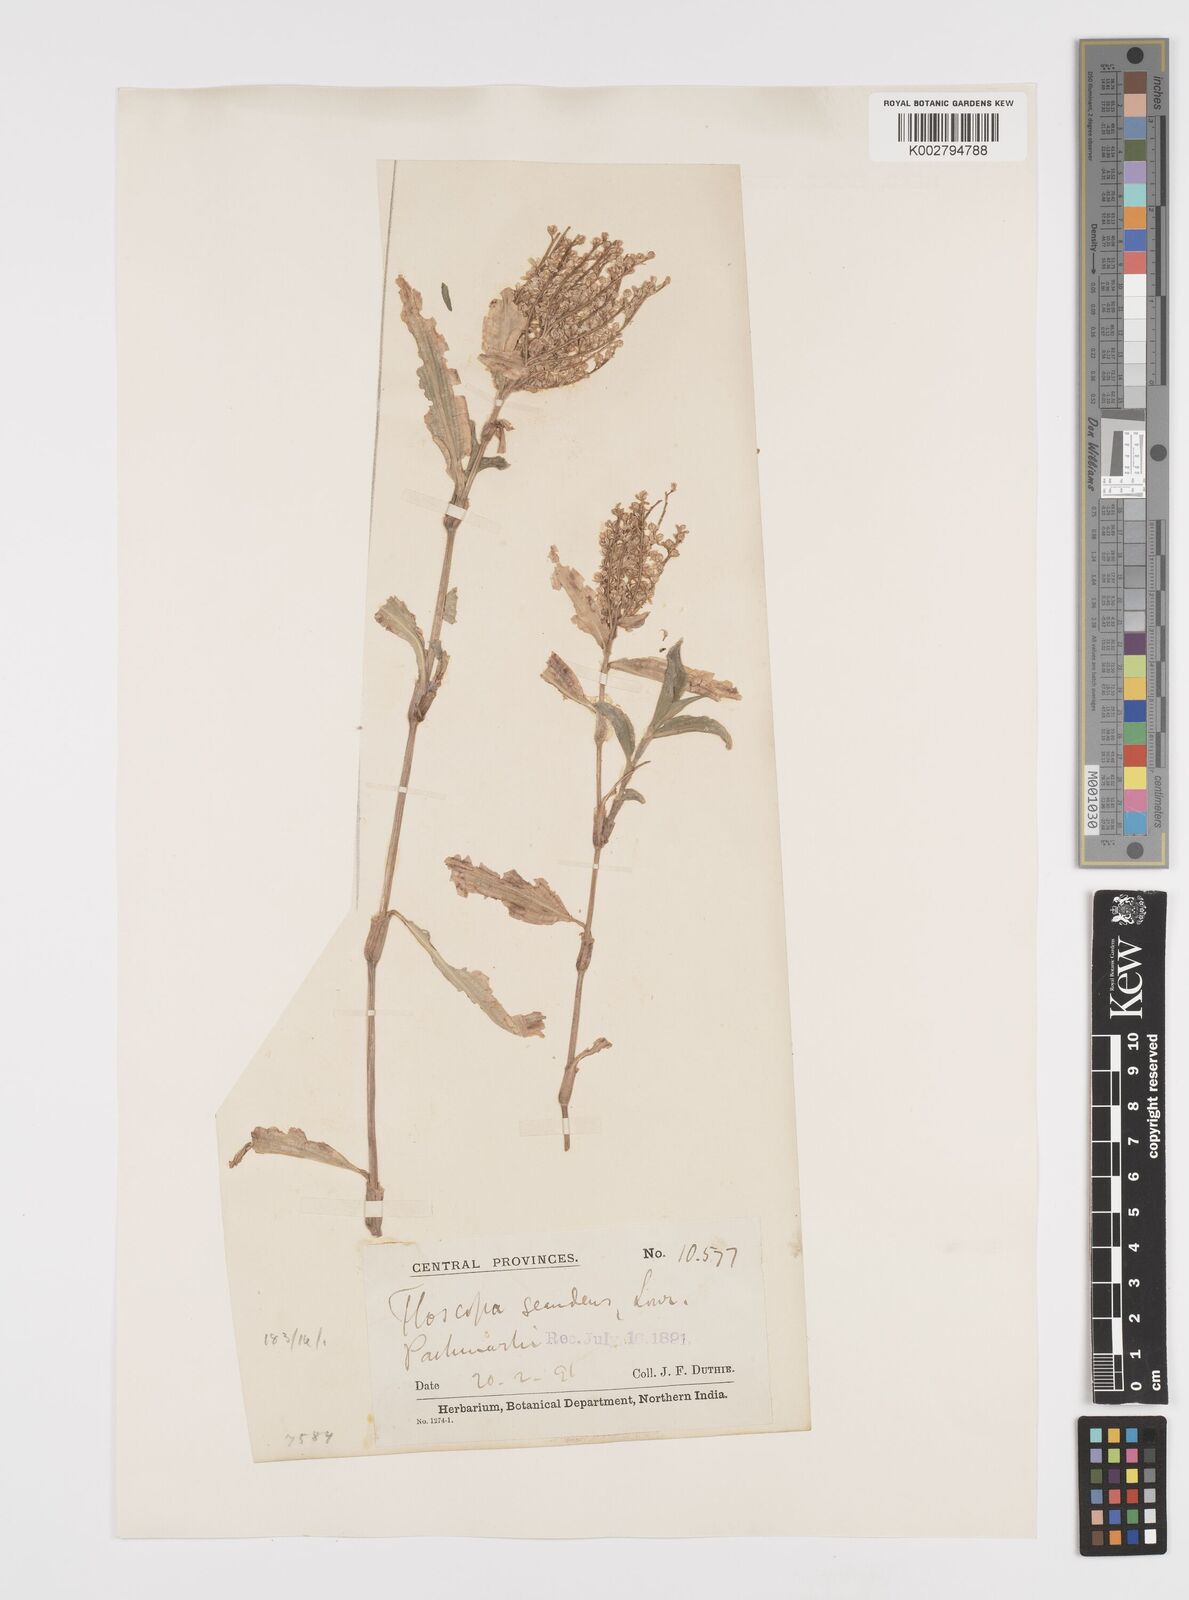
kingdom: Plantae
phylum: Tracheophyta
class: Liliopsida
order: Commelinales
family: Commelinaceae
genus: Floscopa
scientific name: Floscopa scandens
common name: Climbing flower cup
